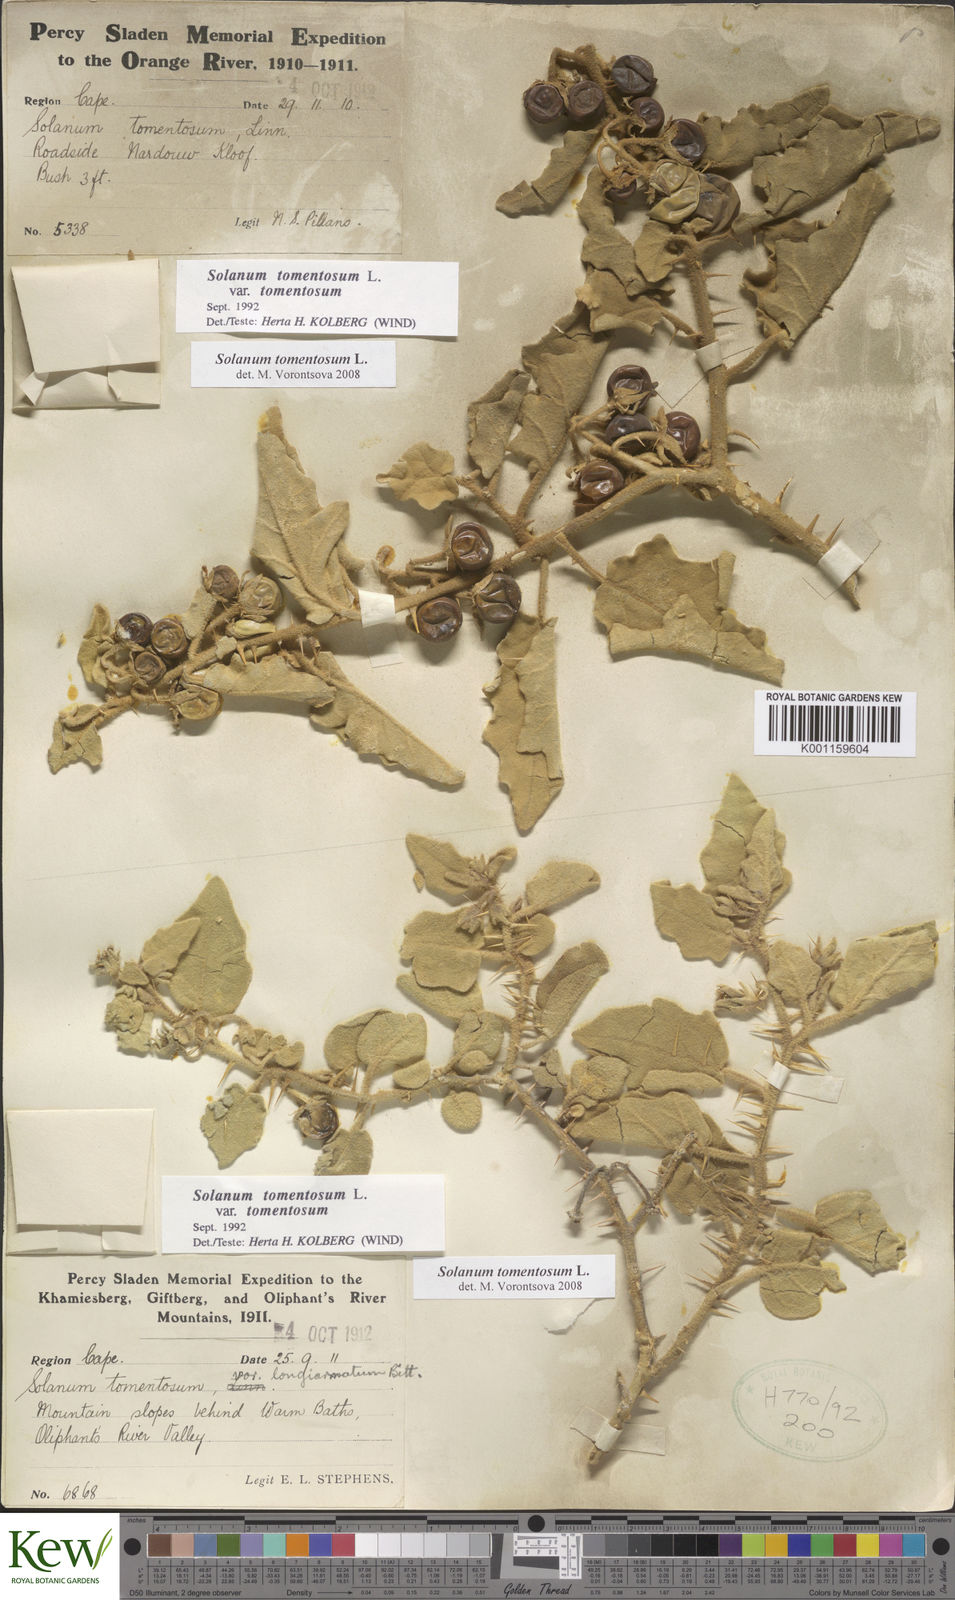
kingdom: Plantae
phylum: Tracheophyta
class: Magnoliopsida
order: Solanales
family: Solanaceae
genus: Solanum
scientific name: Solanum tomentosum
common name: Wild aubergine
